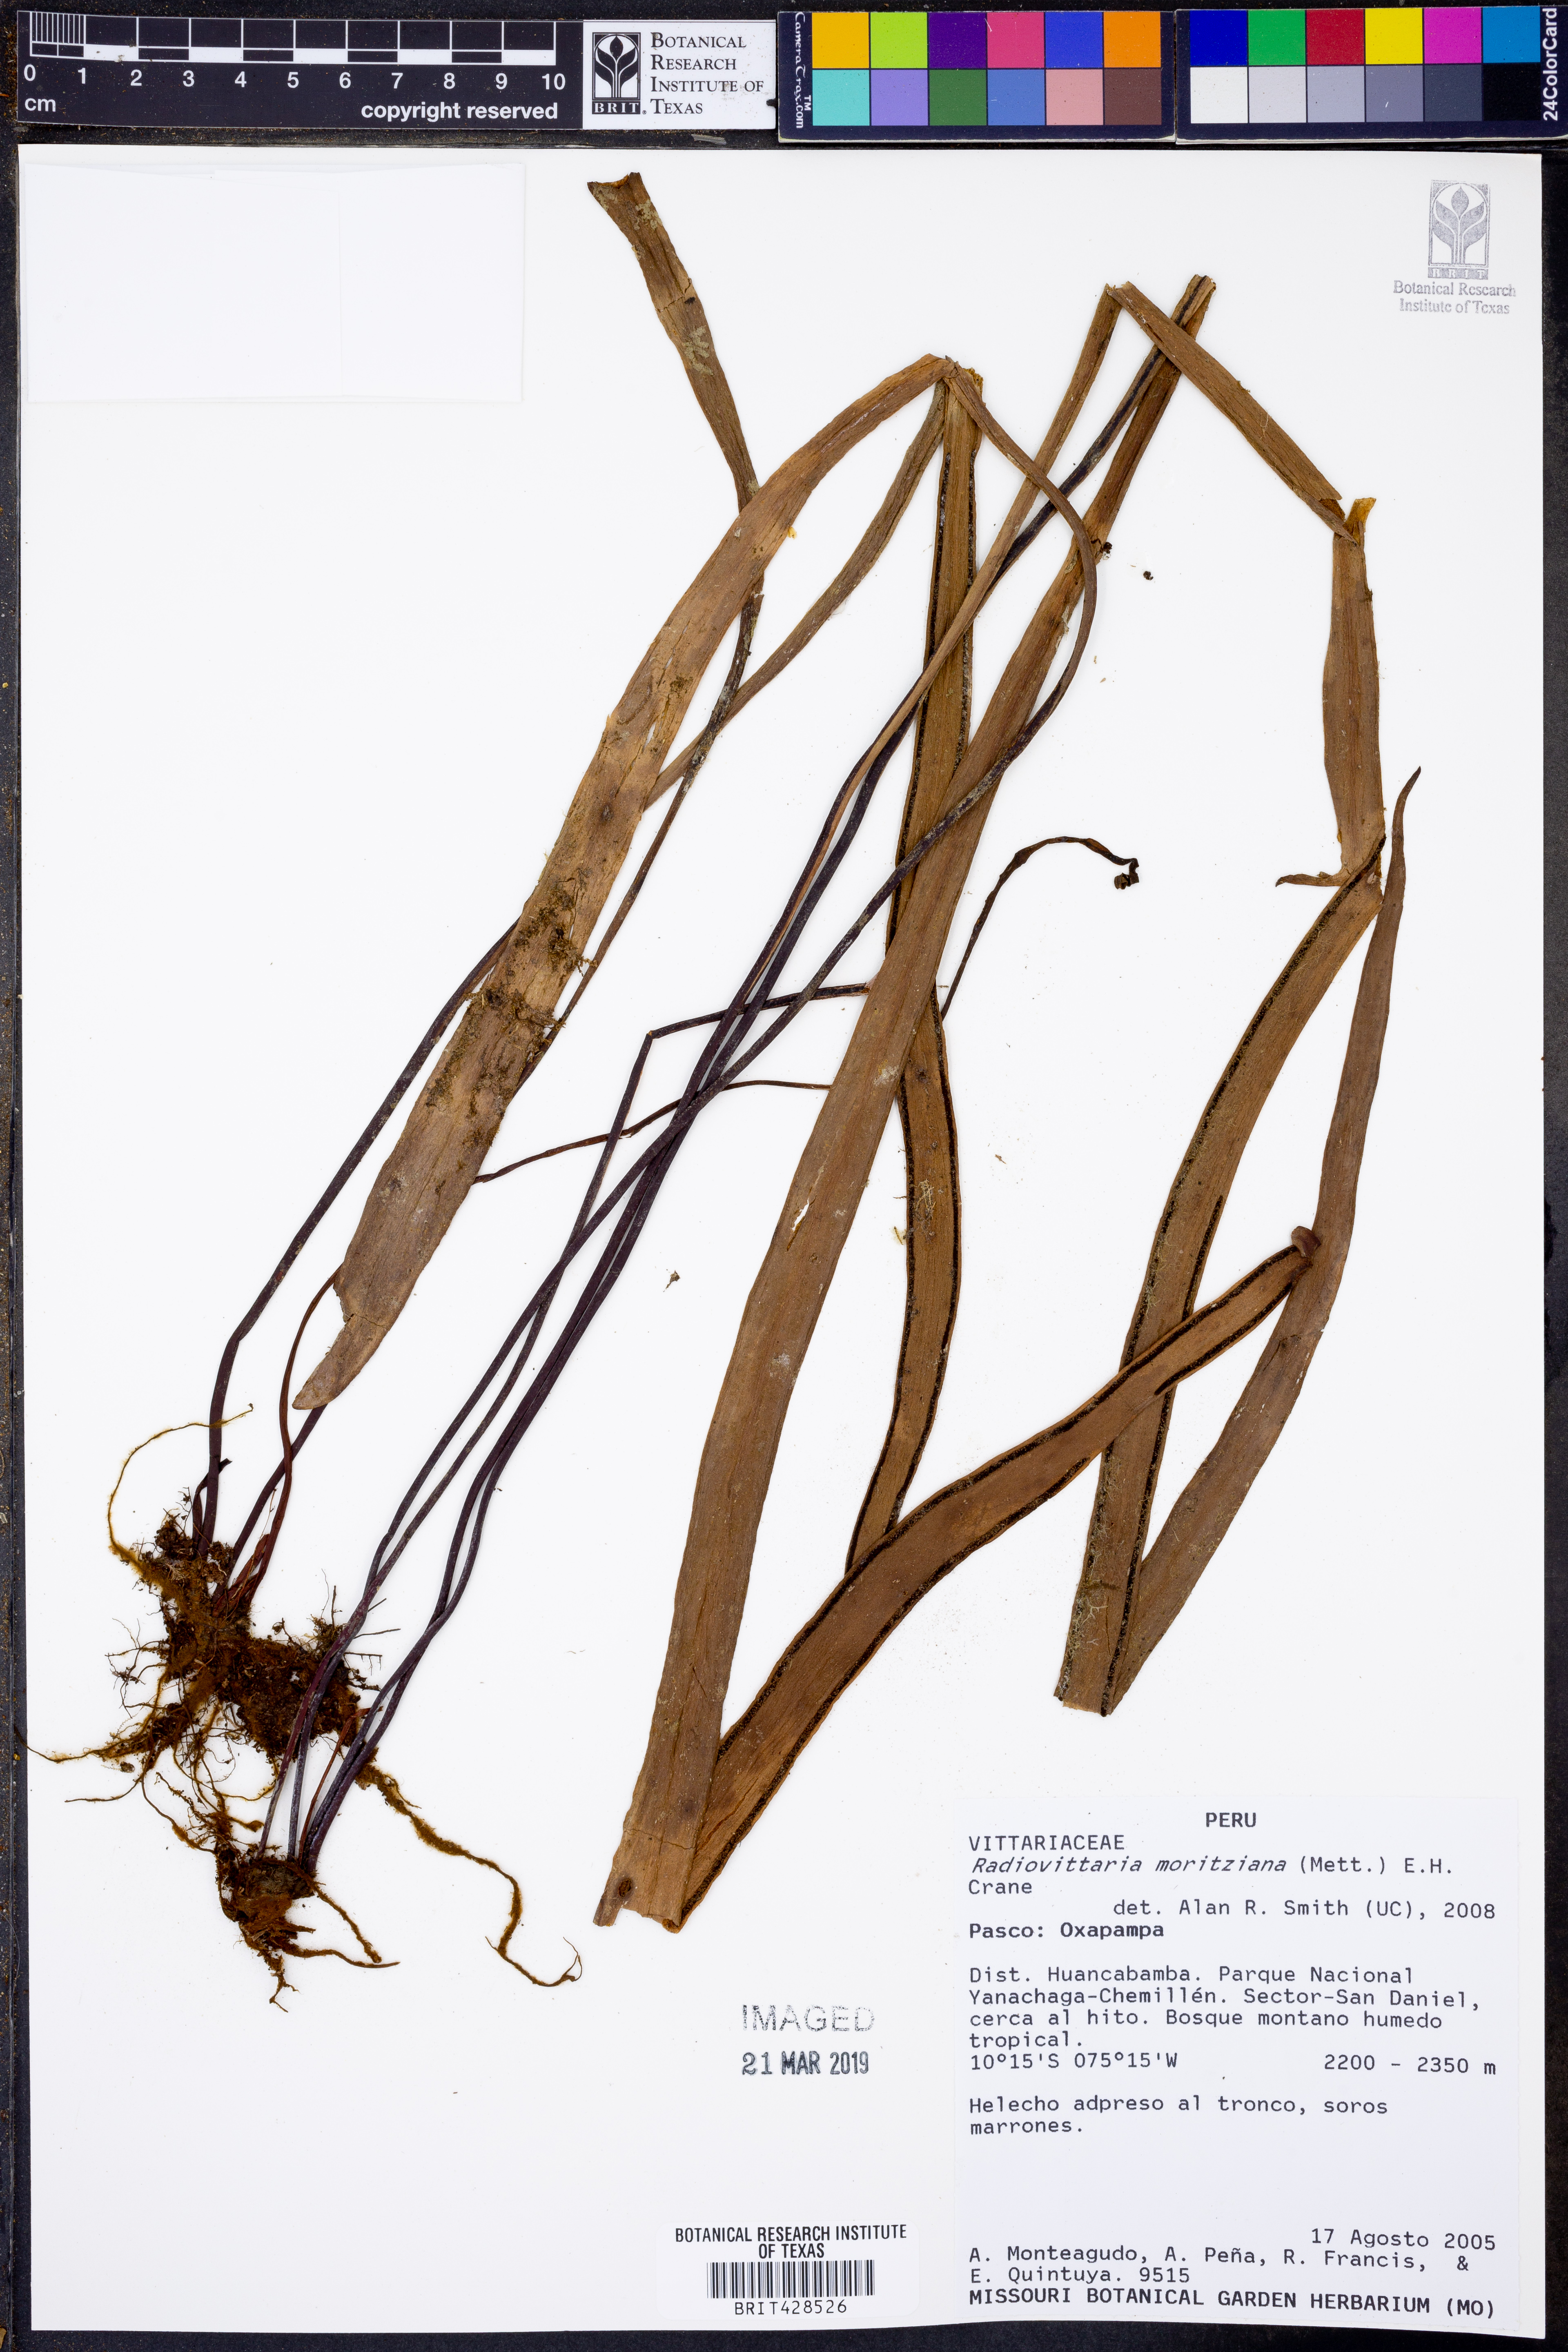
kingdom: Plantae
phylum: Tracheophyta
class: Polypodiopsida
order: Polypodiales
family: Pteridaceae
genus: Radiovittaria
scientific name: Radiovittaria moritziana
